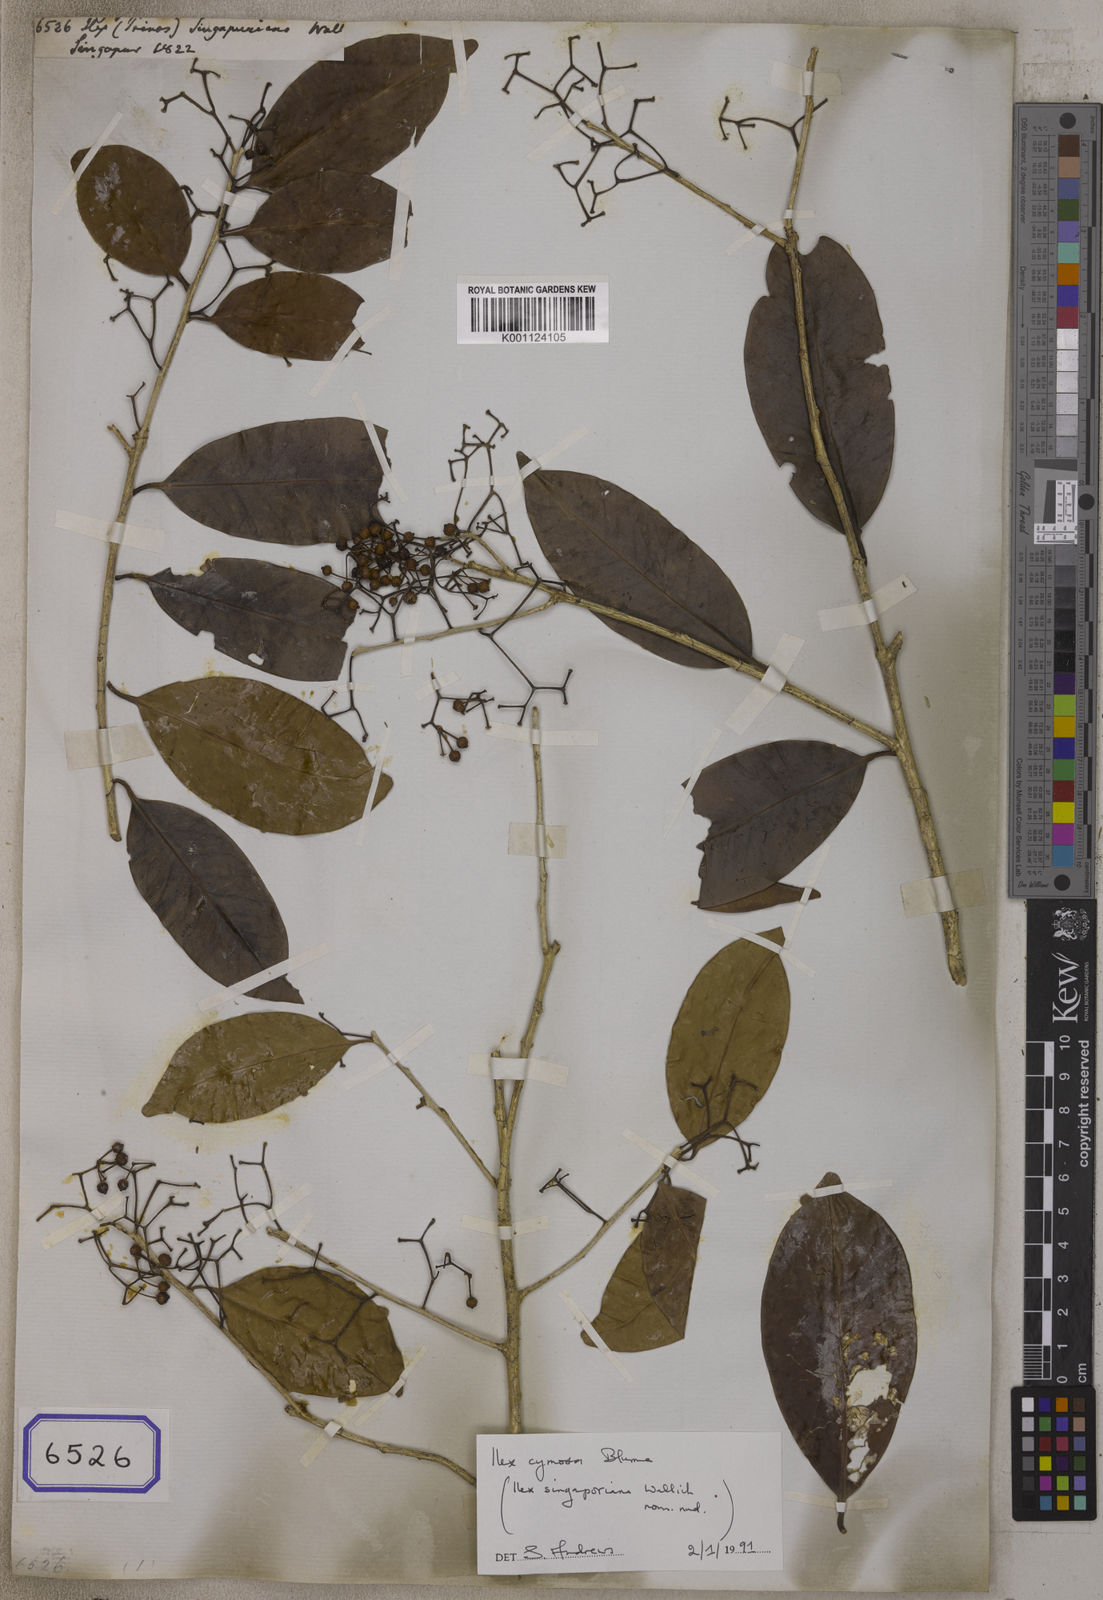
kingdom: Plantae
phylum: Tracheophyta
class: Magnoliopsida
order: Aquifoliales
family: Aquifoliaceae
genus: Ilex
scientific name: Ilex cymosa
